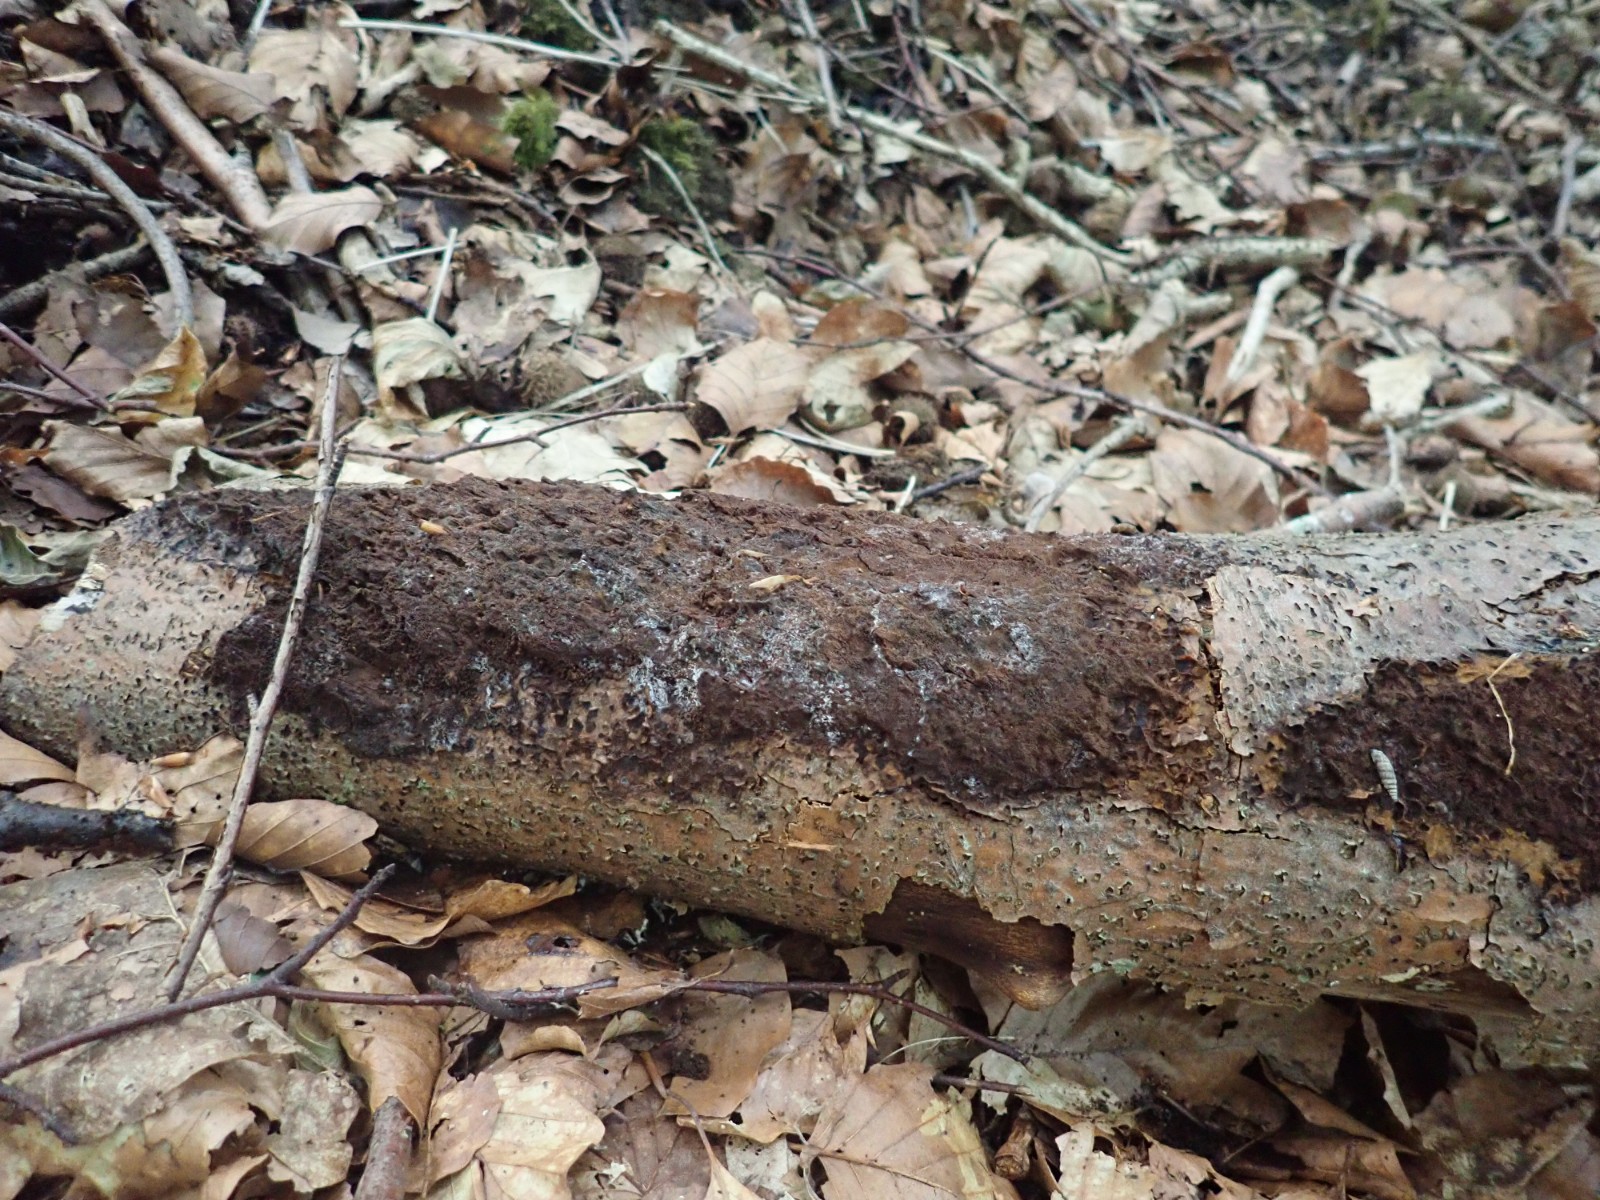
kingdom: Fungi
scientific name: Fungi
